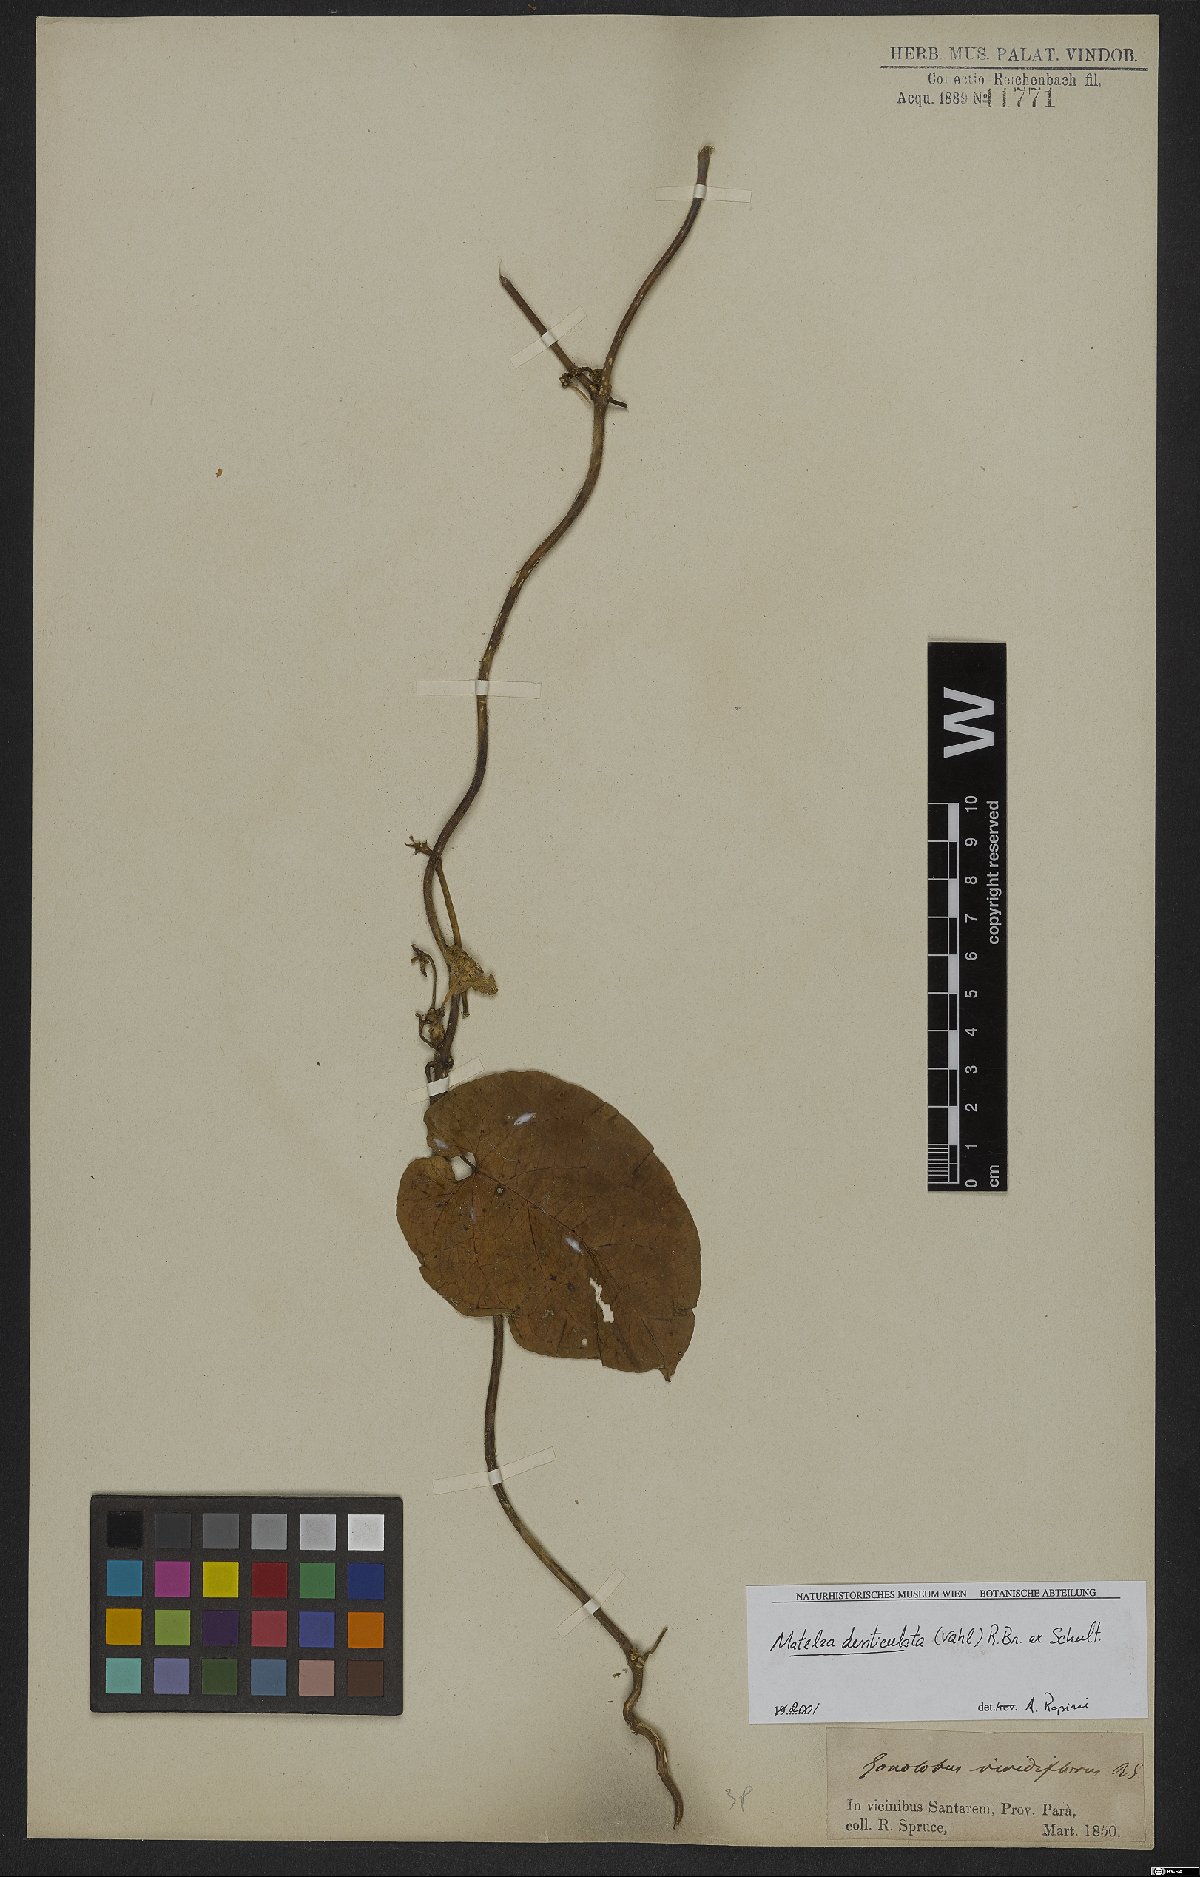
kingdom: Plantae
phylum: Tracheophyta
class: Magnoliopsida
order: Gentianales
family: Apocynaceae
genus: Chloropetalum
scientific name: Chloropetalum denticulatum
